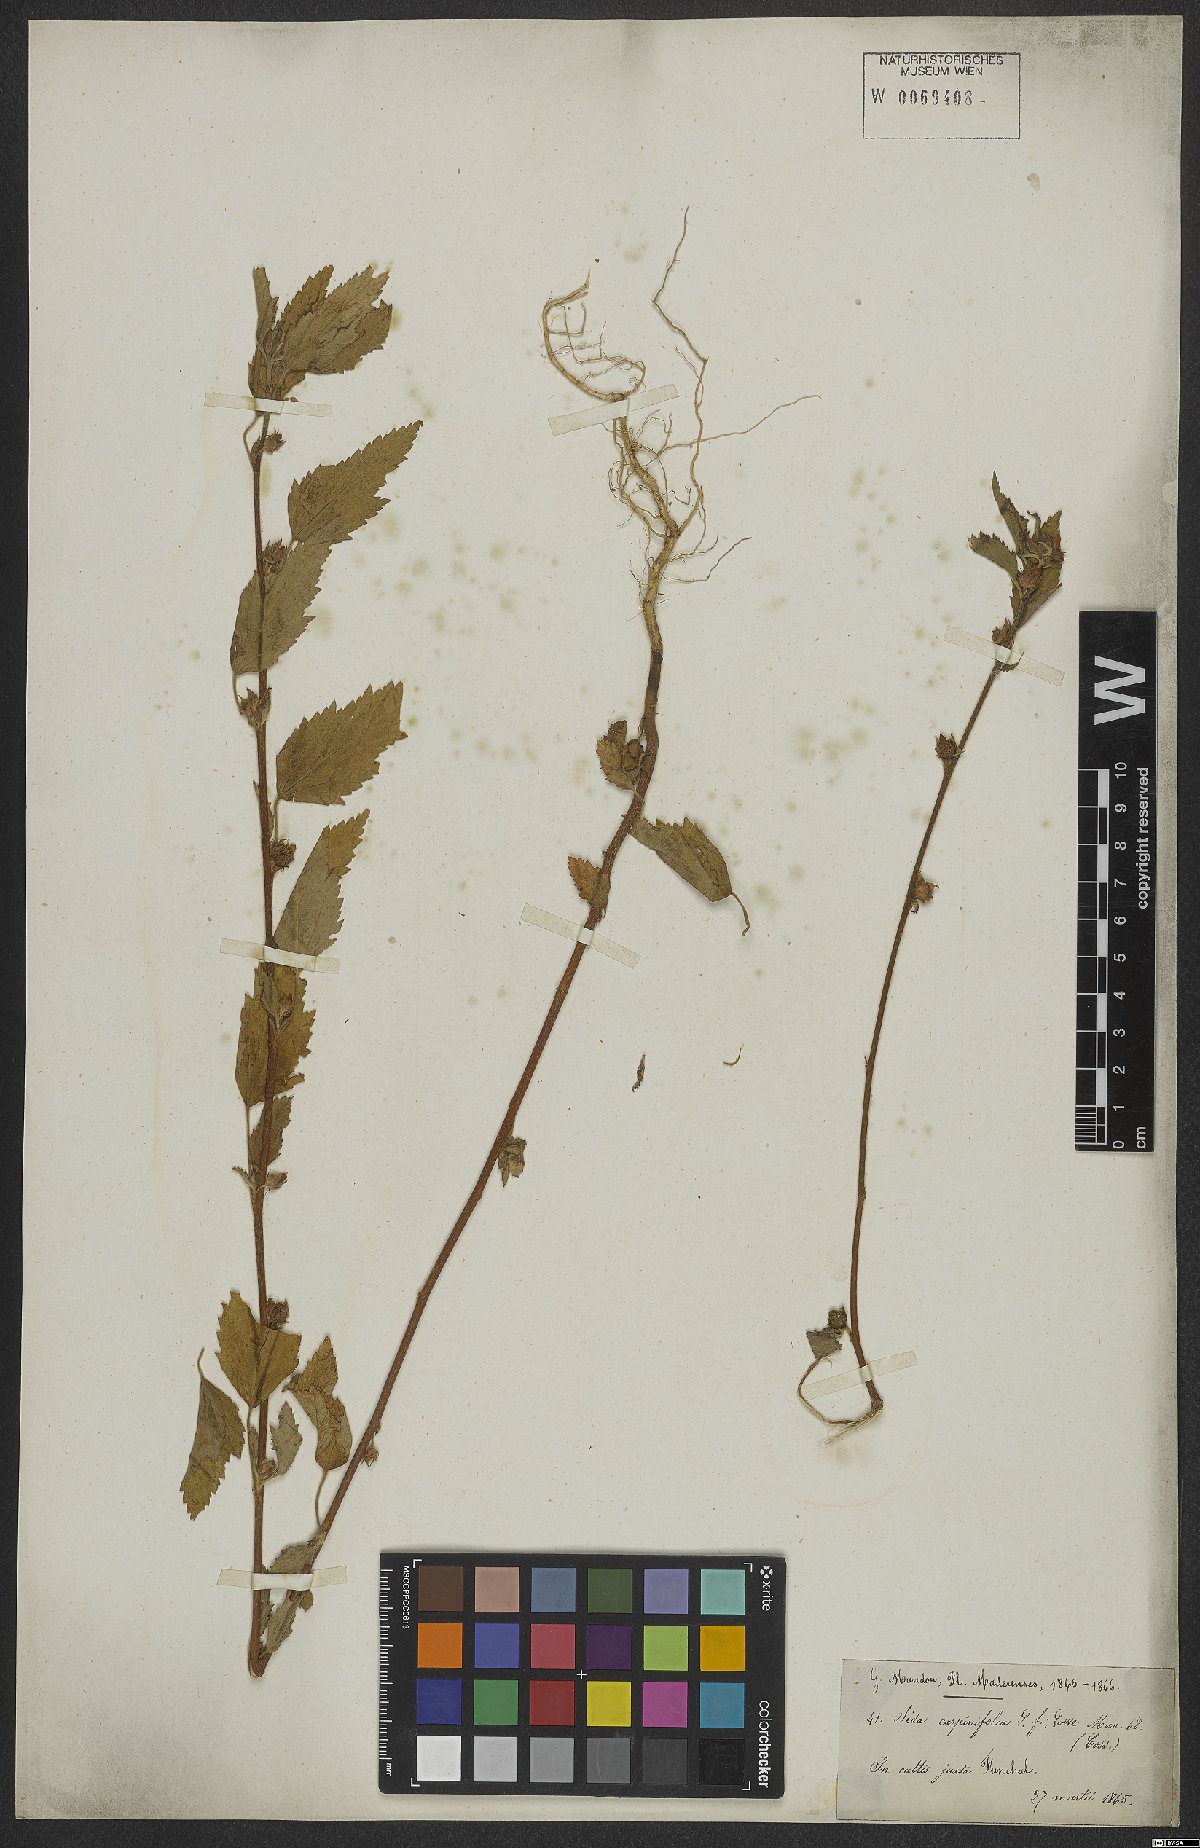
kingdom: Plantae
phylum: Tracheophyta
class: Magnoliopsida
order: Malvales
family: Malvaceae
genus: Sida
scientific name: Sida acuta
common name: Common wireweed
